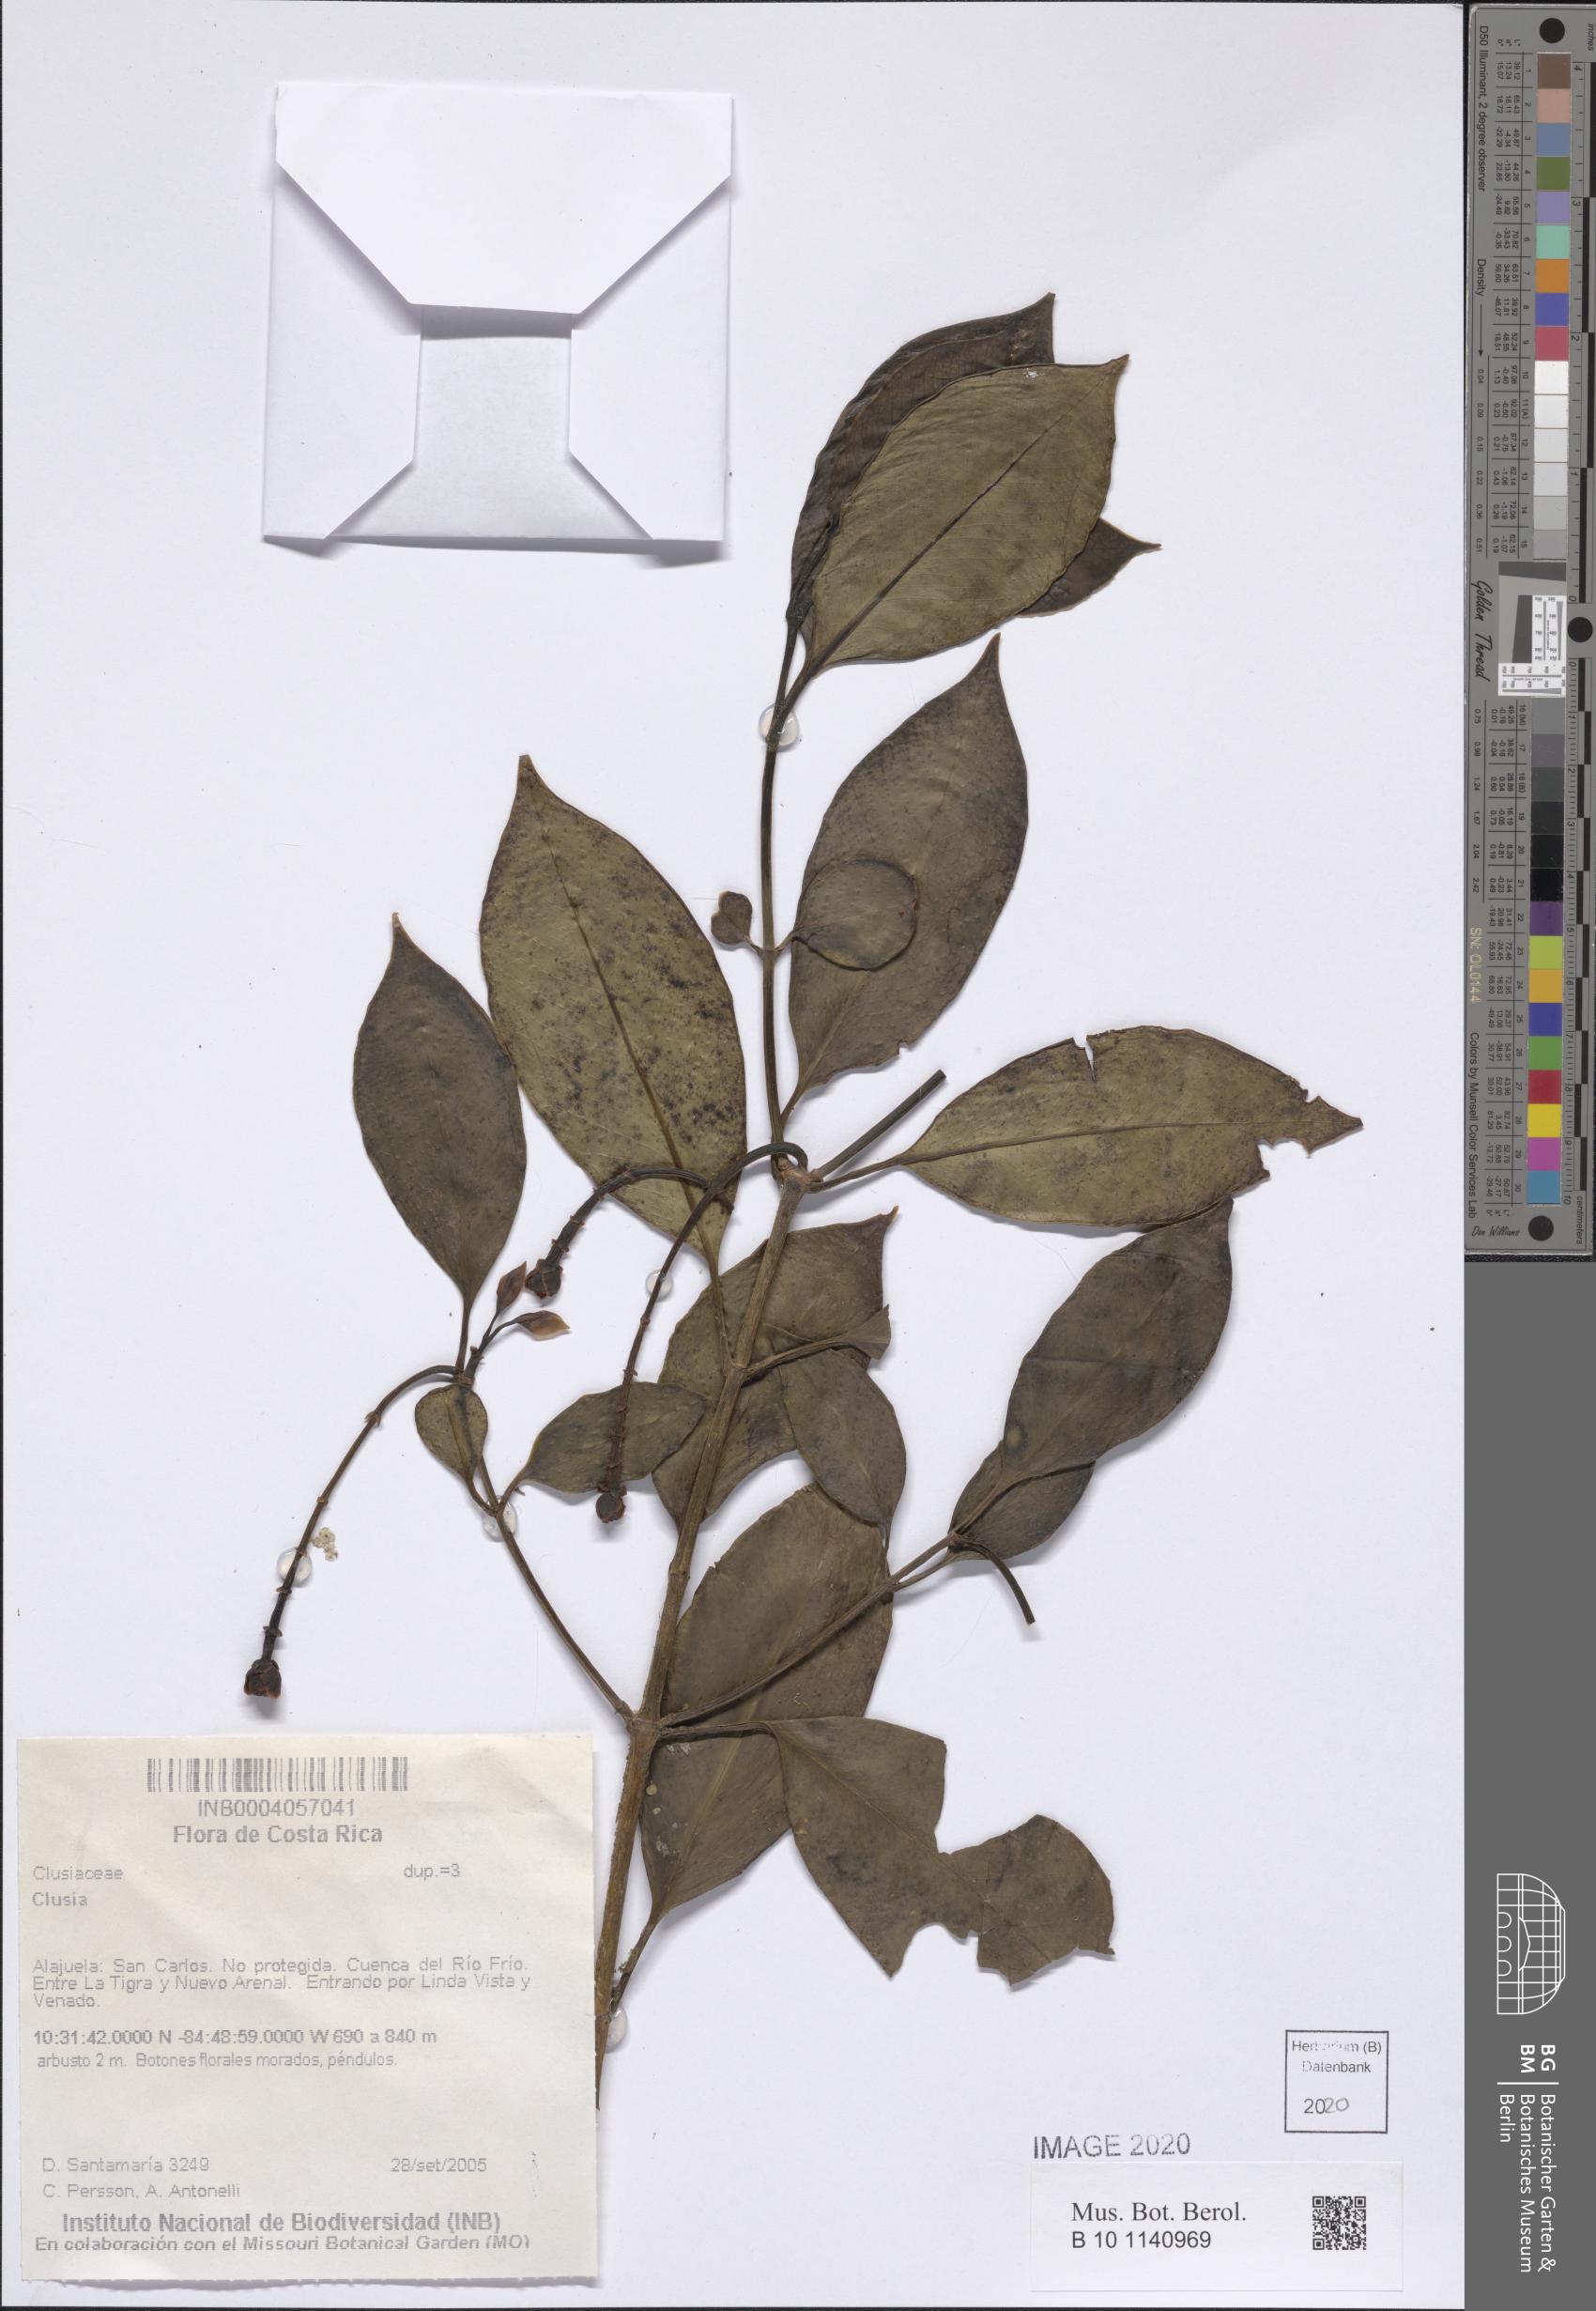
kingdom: Plantae
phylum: Tracheophyta
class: Magnoliopsida
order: Malpighiales
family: Clusiaceae
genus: Clusia
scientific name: Clusia
